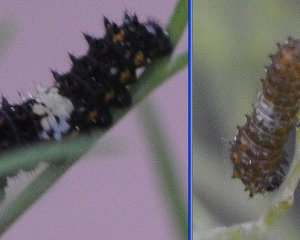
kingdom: Animalia
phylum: Arthropoda
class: Insecta
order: Lepidoptera
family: Papilionidae
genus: Papilio
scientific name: Papilio polyxenes
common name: Black Swallowtail
